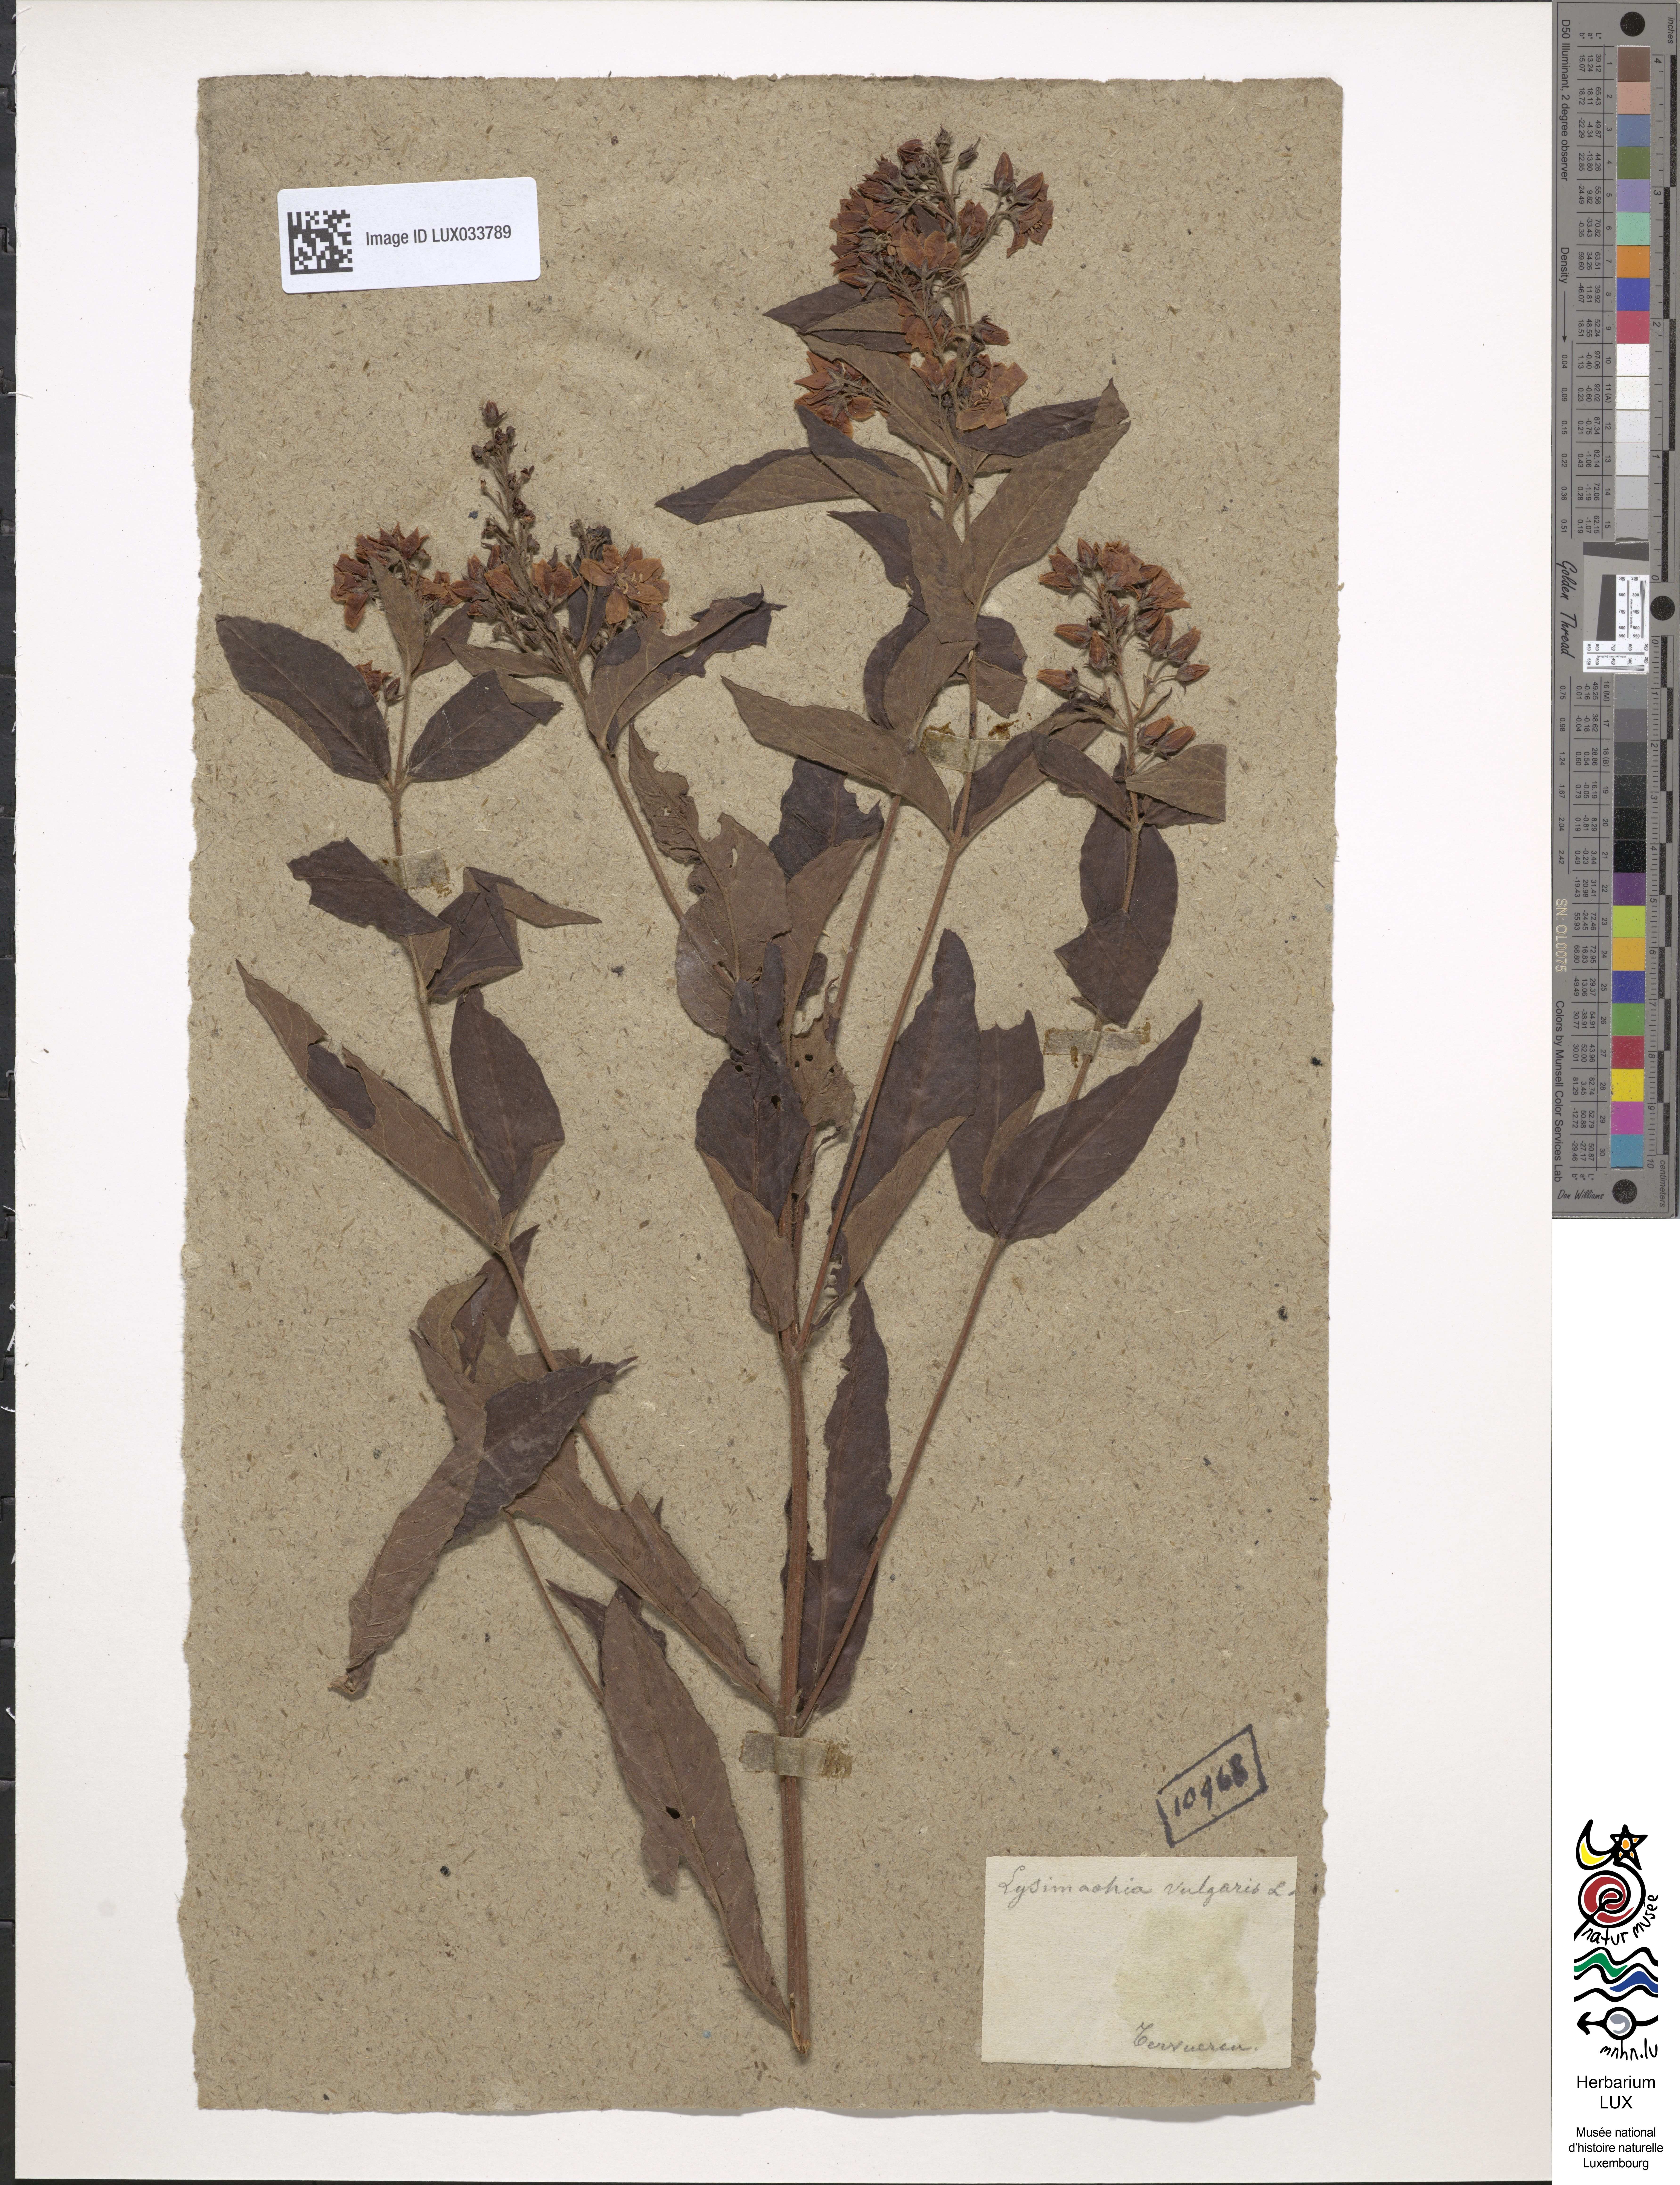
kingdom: Plantae
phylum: Tracheophyta
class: Magnoliopsida
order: Ericales
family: Primulaceae
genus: Lysimachia
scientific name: Lysimachia vulgaris
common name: Yellow loosestrife
